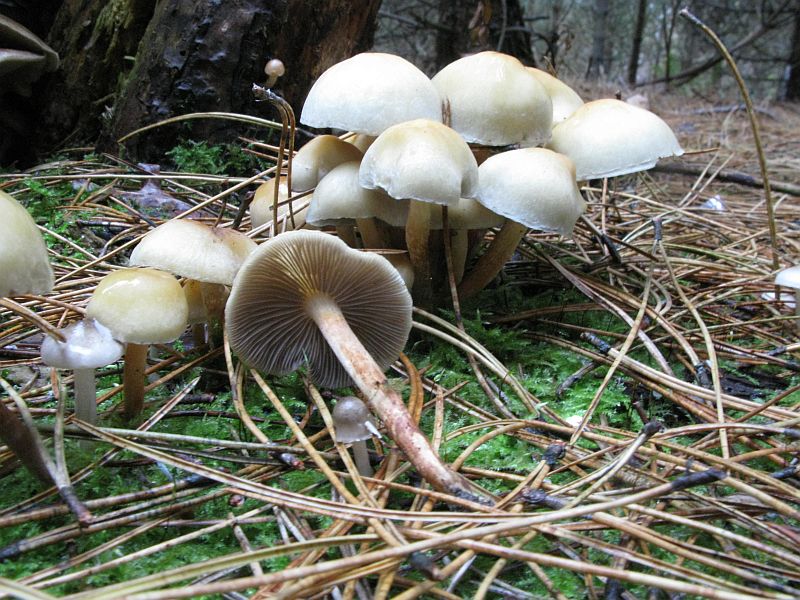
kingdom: Fungi
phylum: Basidiomycota
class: Agaricomycetes
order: Agaricales
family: Strophariaceae
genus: Hypholoma
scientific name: Hypholoma capnoides
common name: gran-svovlhat
